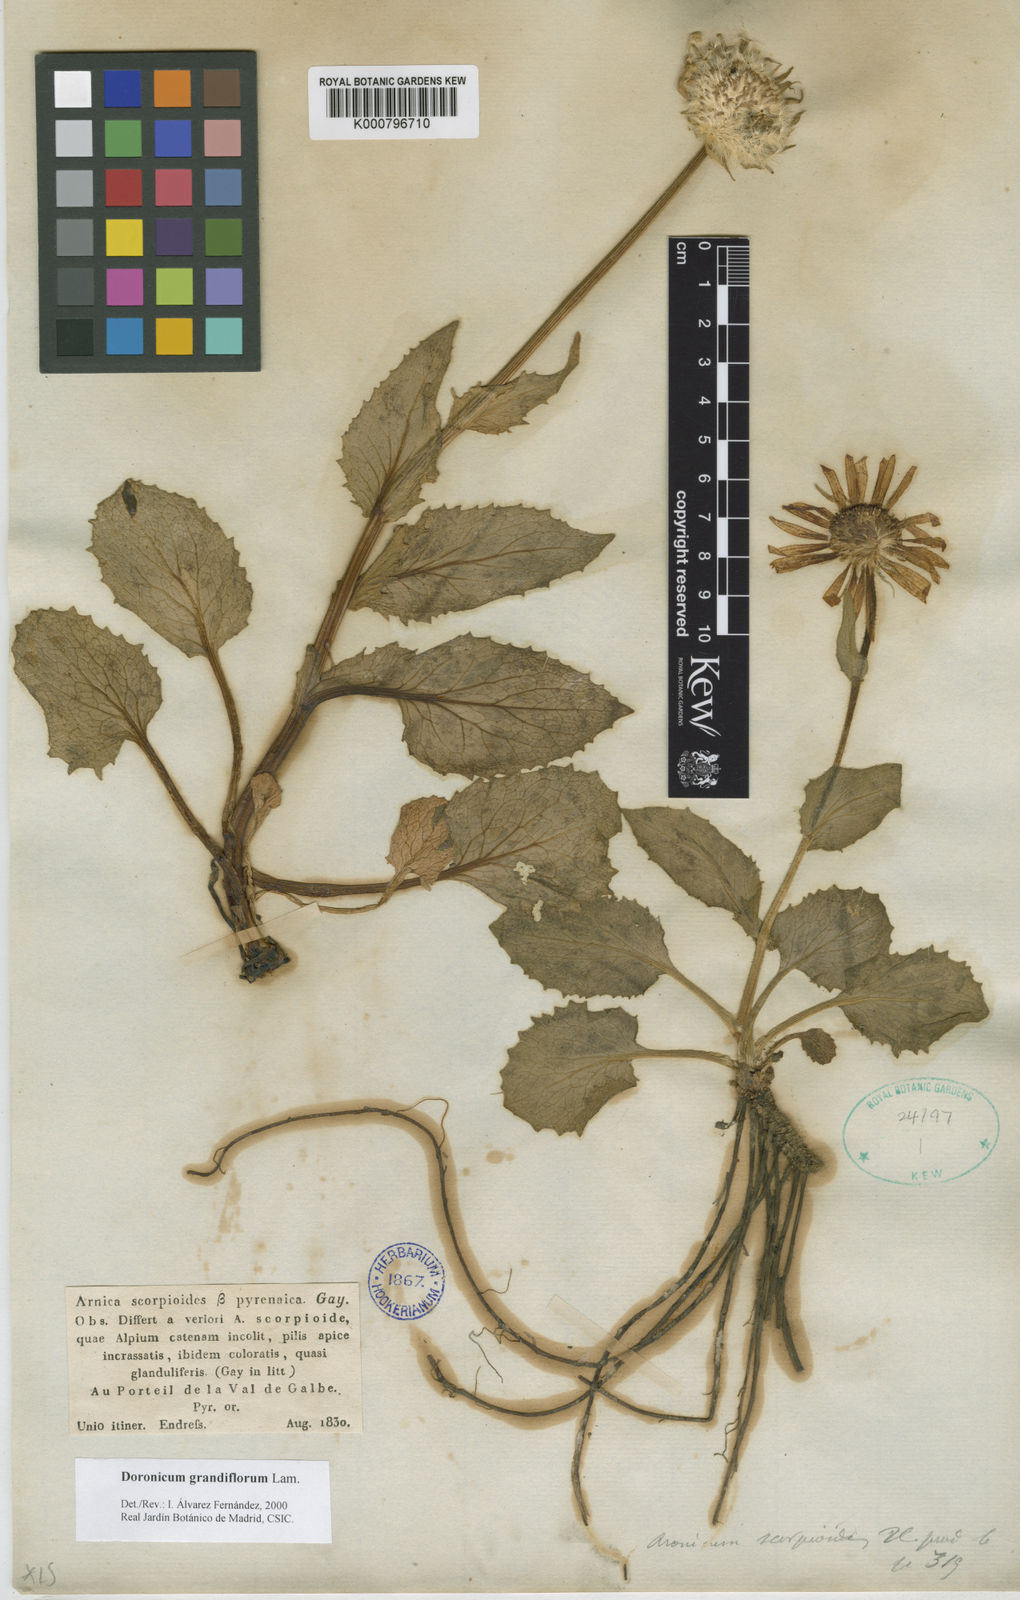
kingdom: Plantae
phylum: Tracheophyta
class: Magnoliopsida
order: Asterales
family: Asteraceae
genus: Doronicum
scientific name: Doronicum grandiflorum
